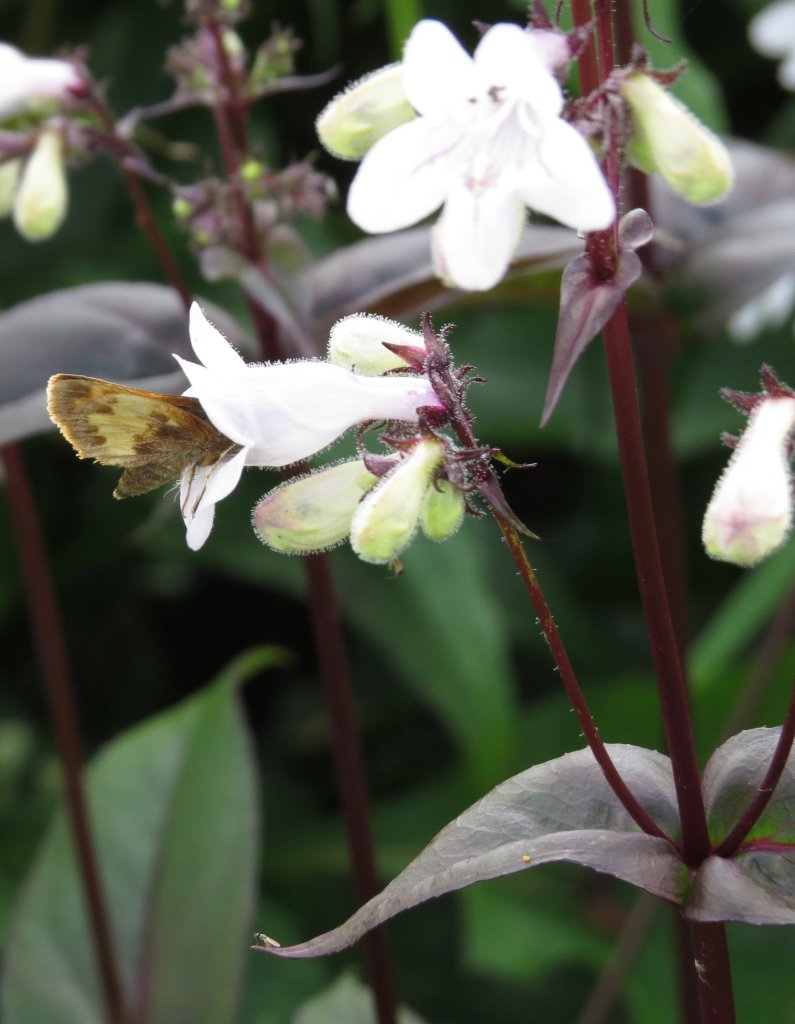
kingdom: Animalia
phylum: Arthropoda
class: Insecta
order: Lepidoptera
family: Hesperiidae
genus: Lon
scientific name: Lon hobomok
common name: Hobomok Skipper
